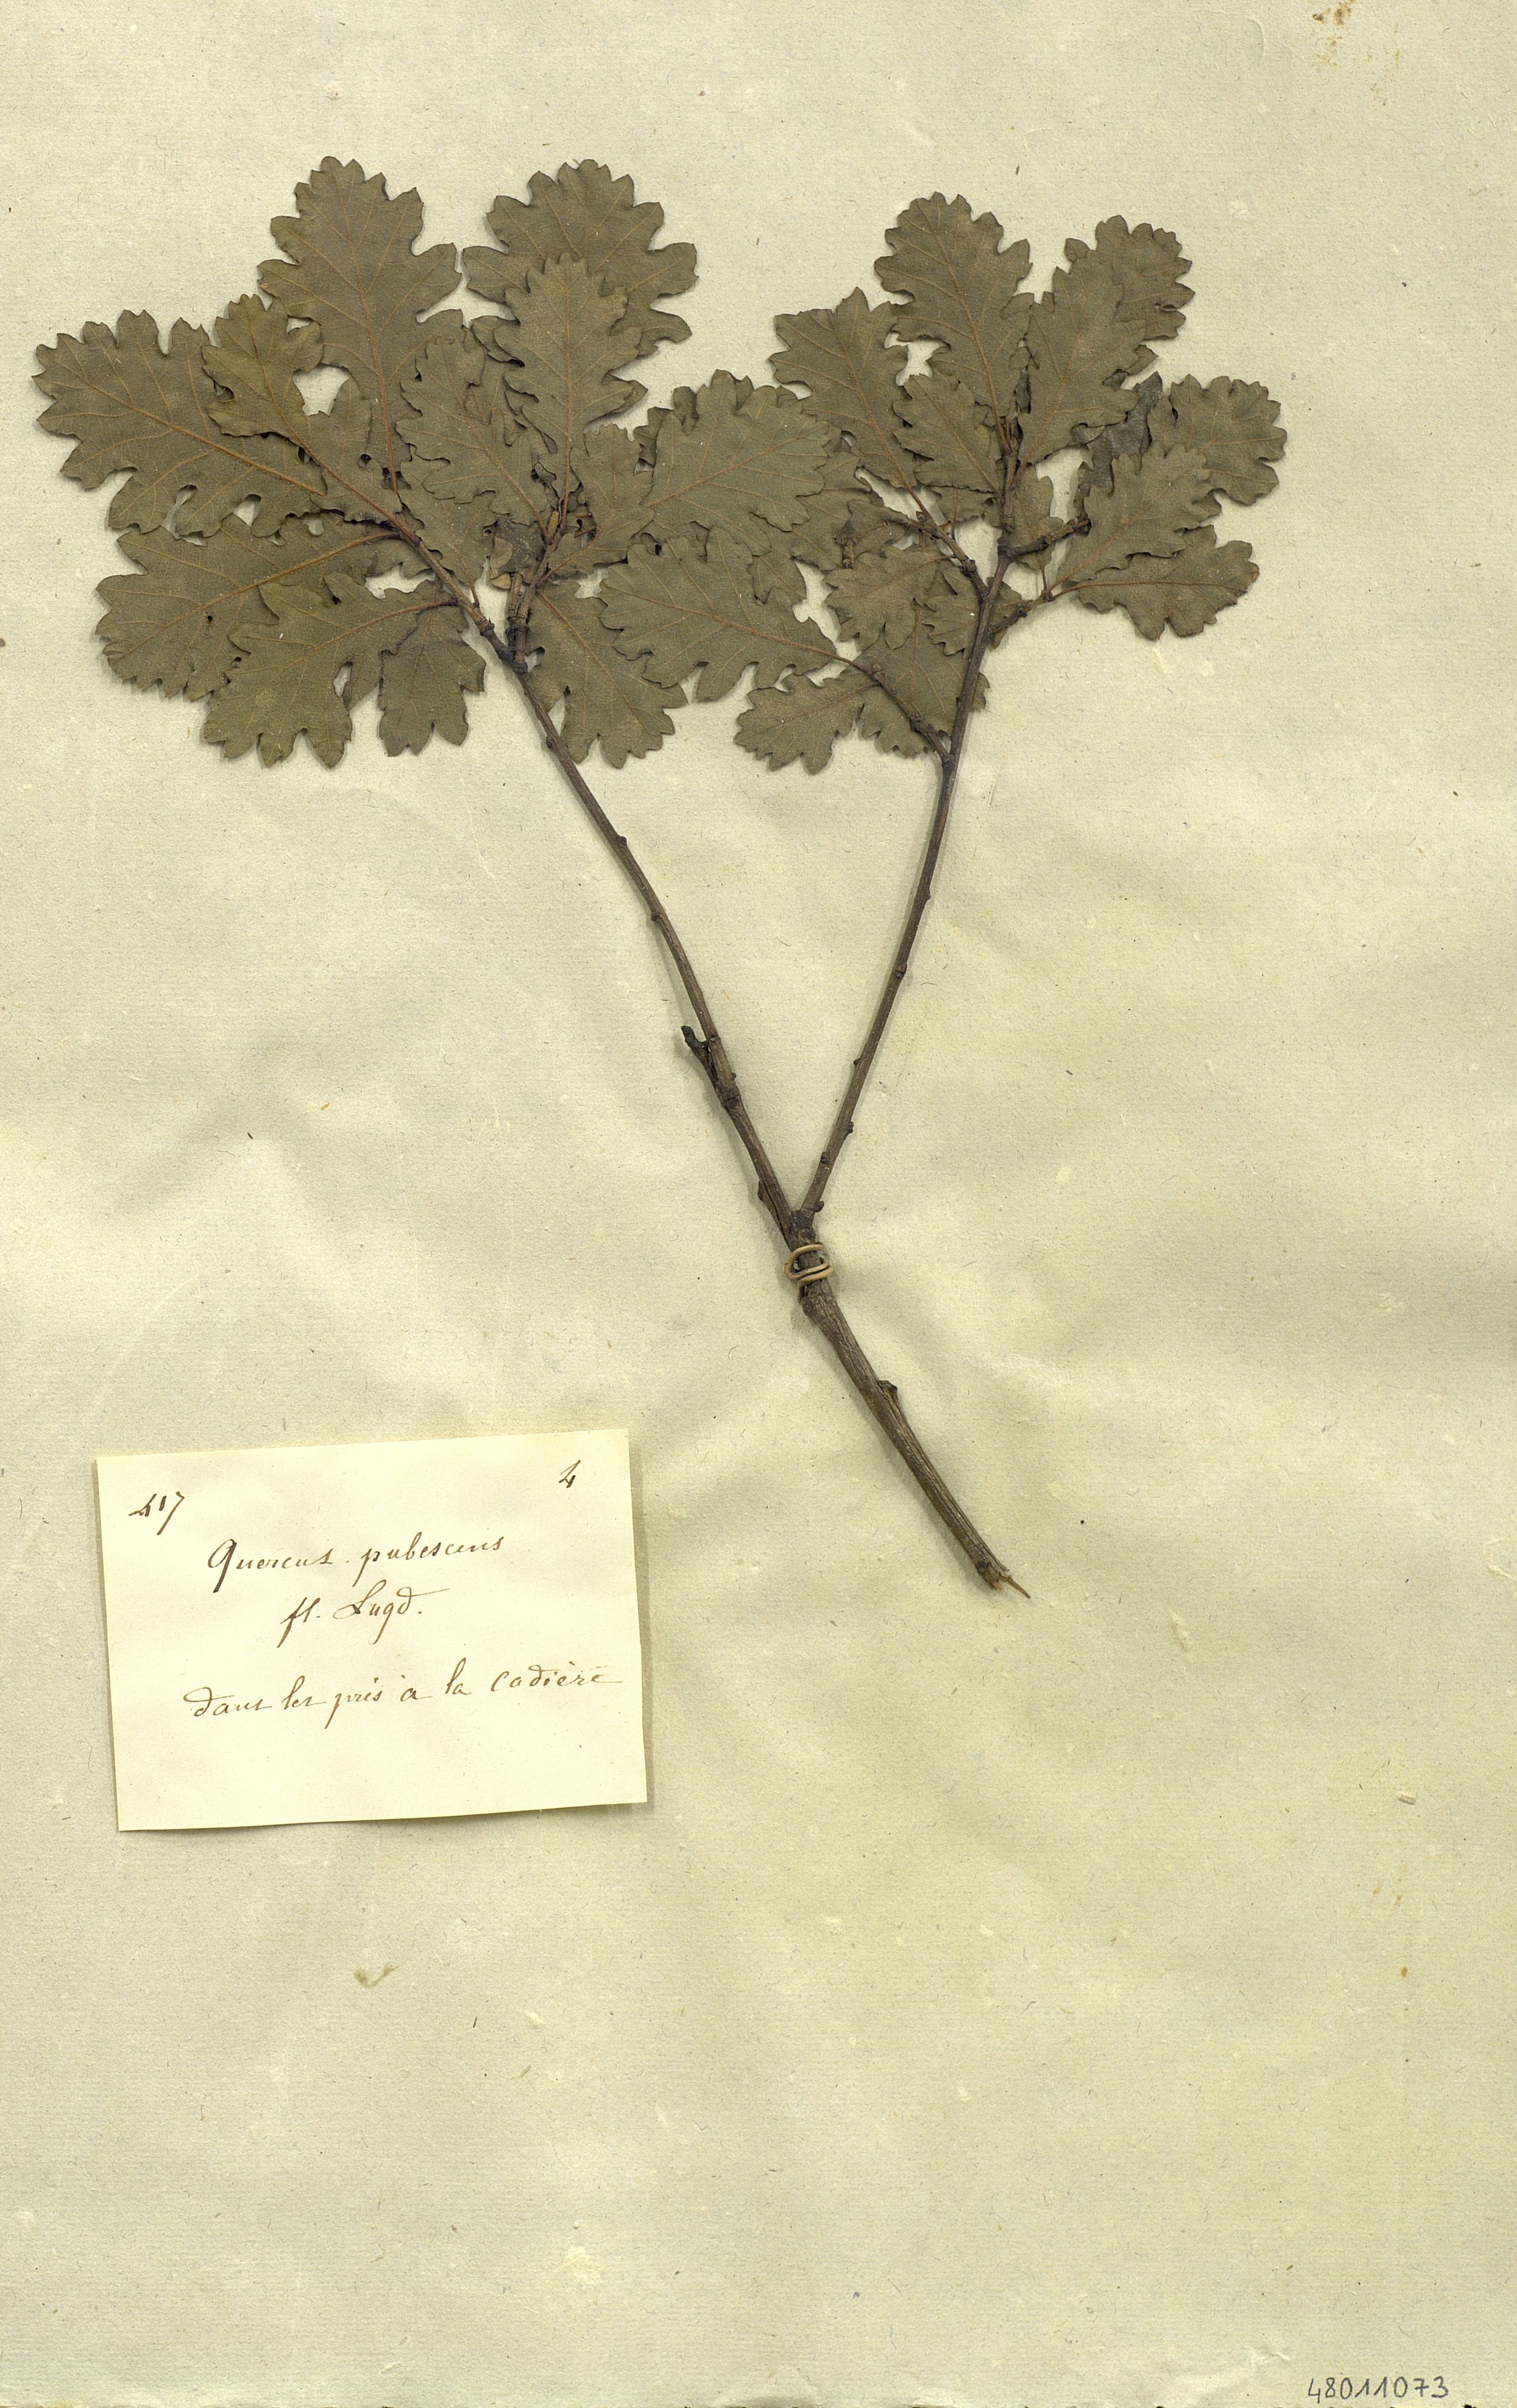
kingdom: Plantae
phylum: Tracheophyta
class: Magnoliopsida
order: Fagales
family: Fagaceae
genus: Quercus
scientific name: Quercus pubescens
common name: Downy oak
